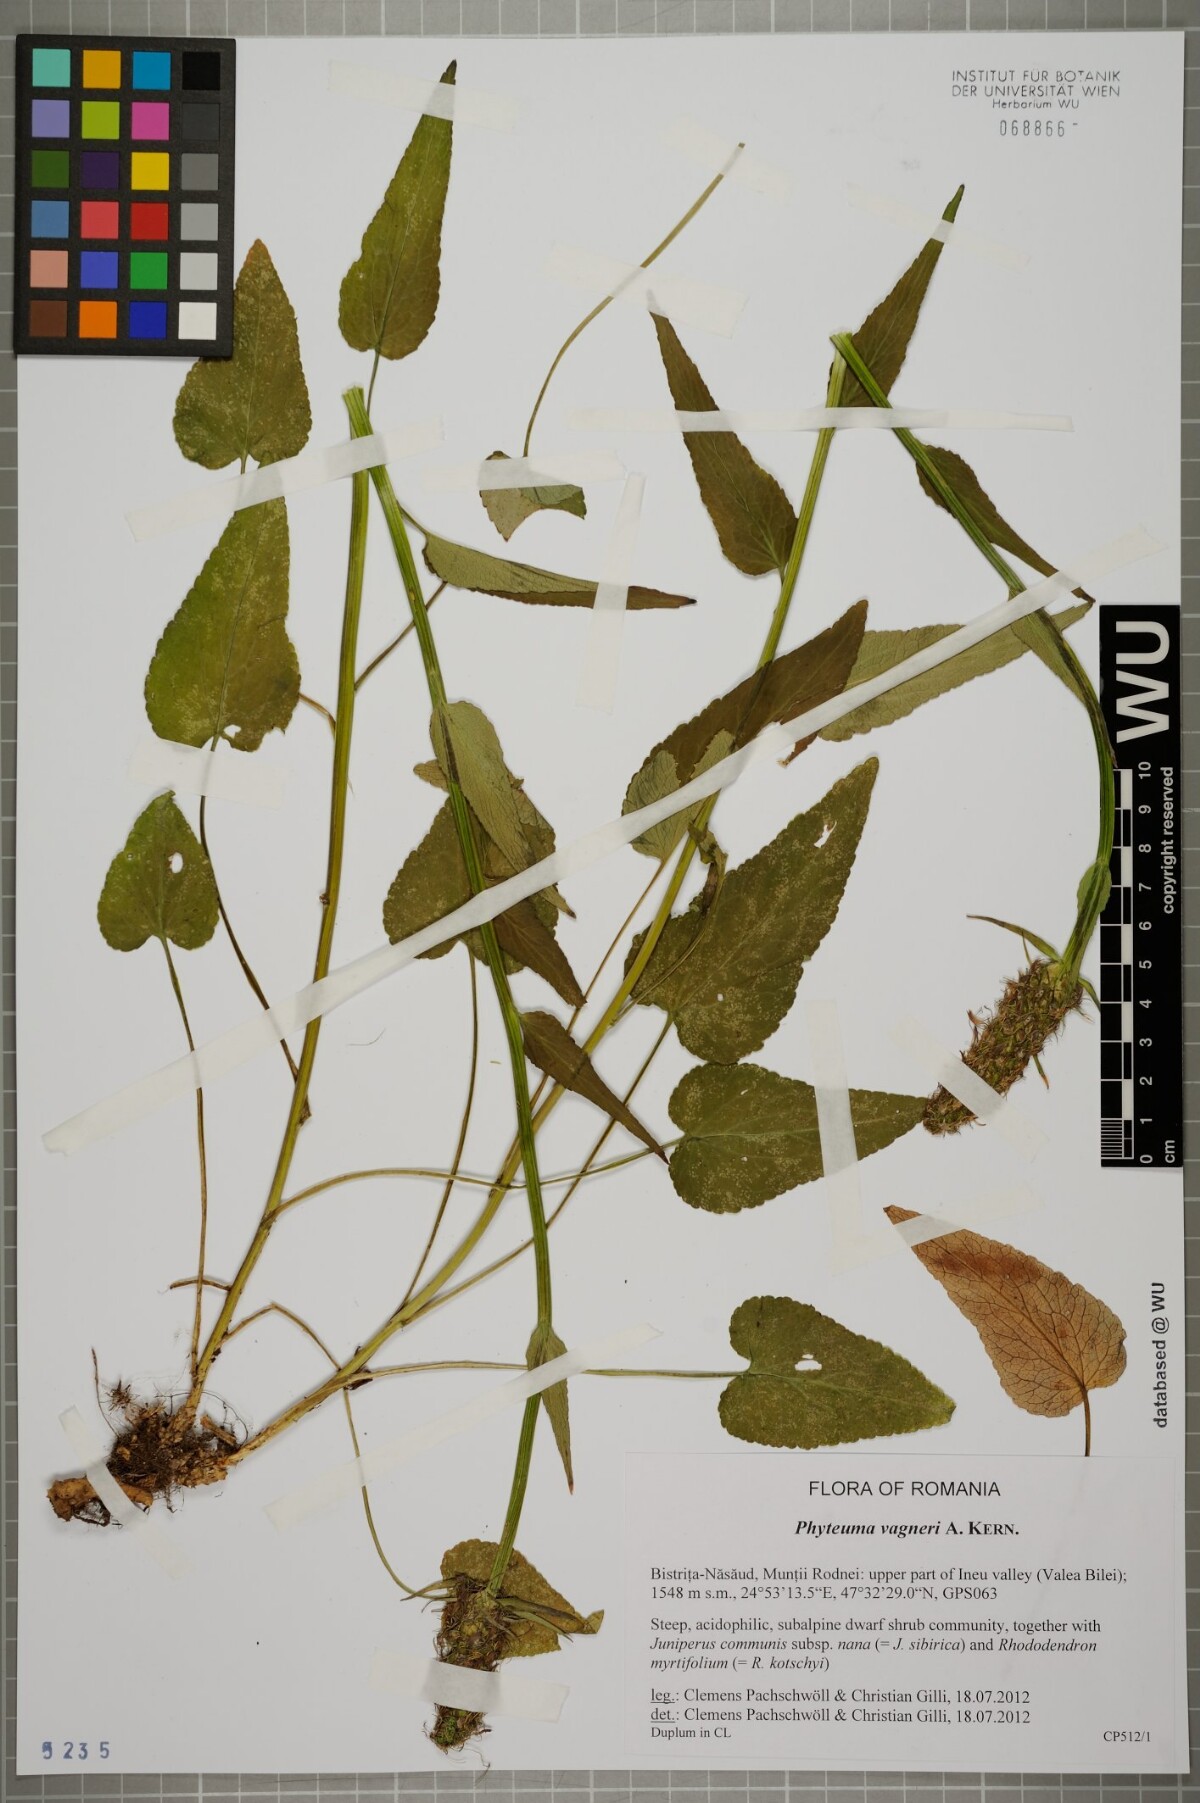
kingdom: Plantae
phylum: Tracheophyta
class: Magnoliopsida
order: Asterales
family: Campanulaceae
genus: Phyteuma
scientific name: Phyteuma vagneri
